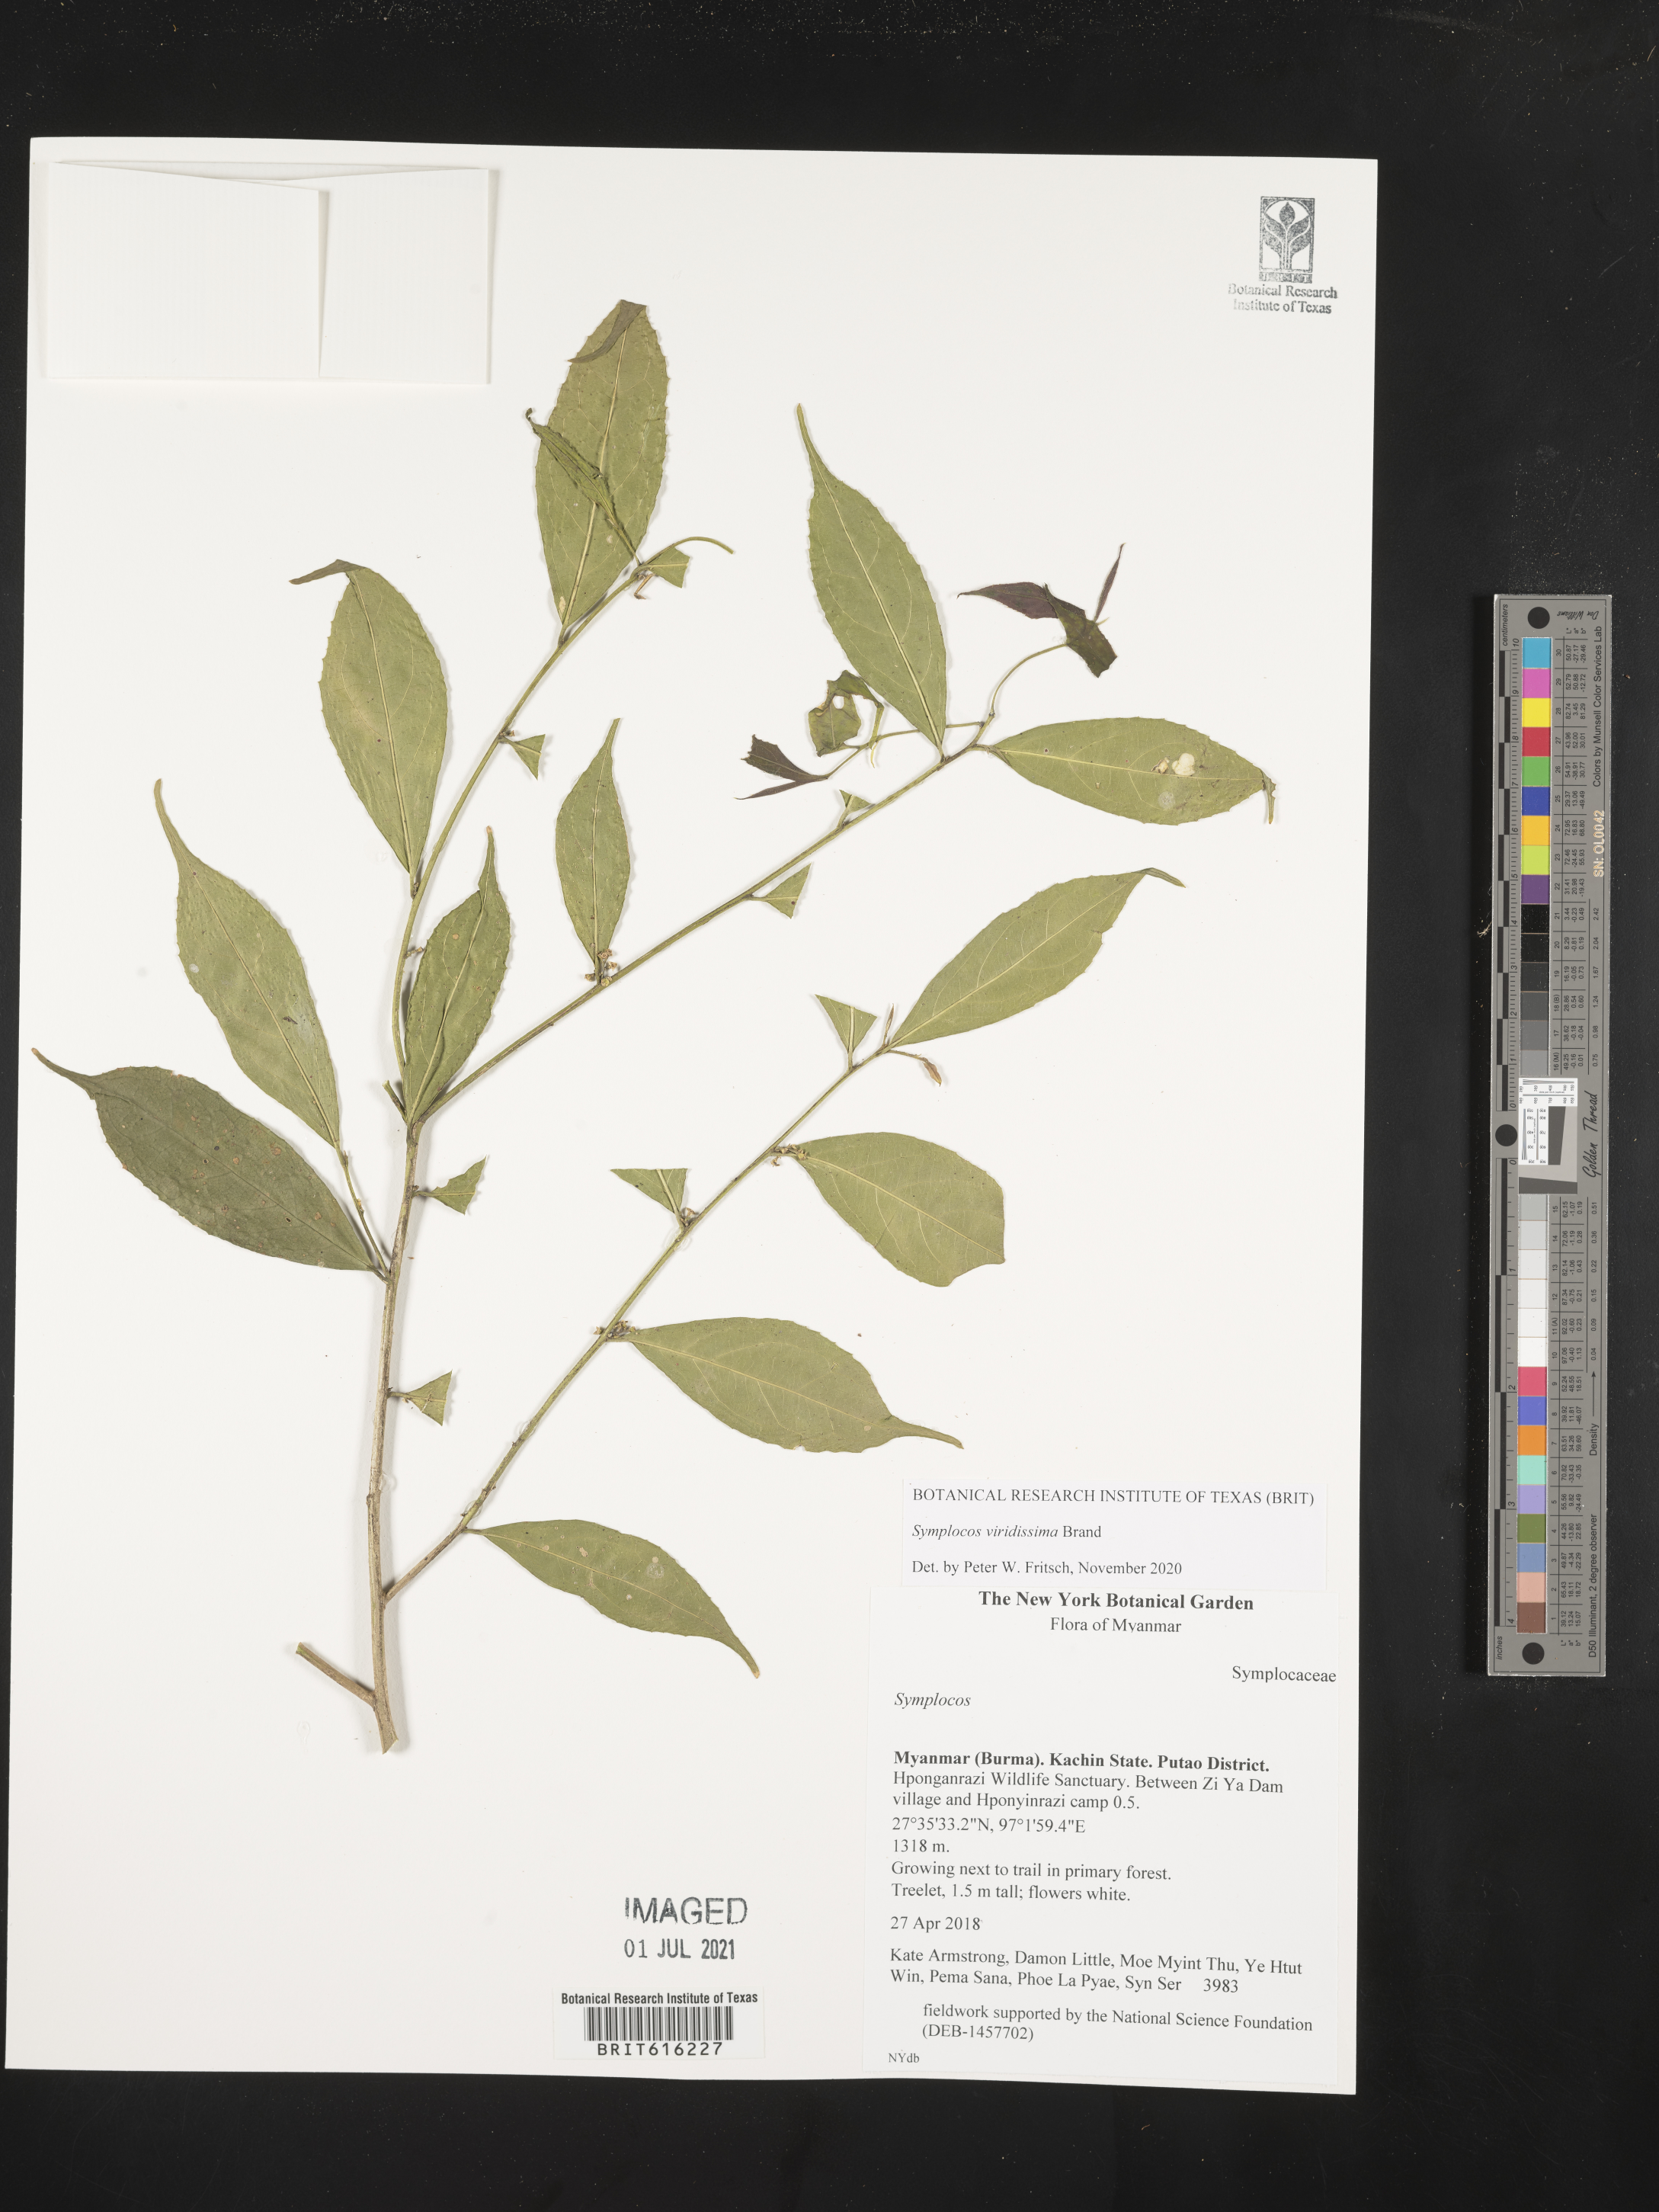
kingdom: Plantae
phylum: Tracheophyta
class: Magnoliopsida
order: Ericales
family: Symplocaceae
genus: Symplocos
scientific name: Symplocos viridissima
